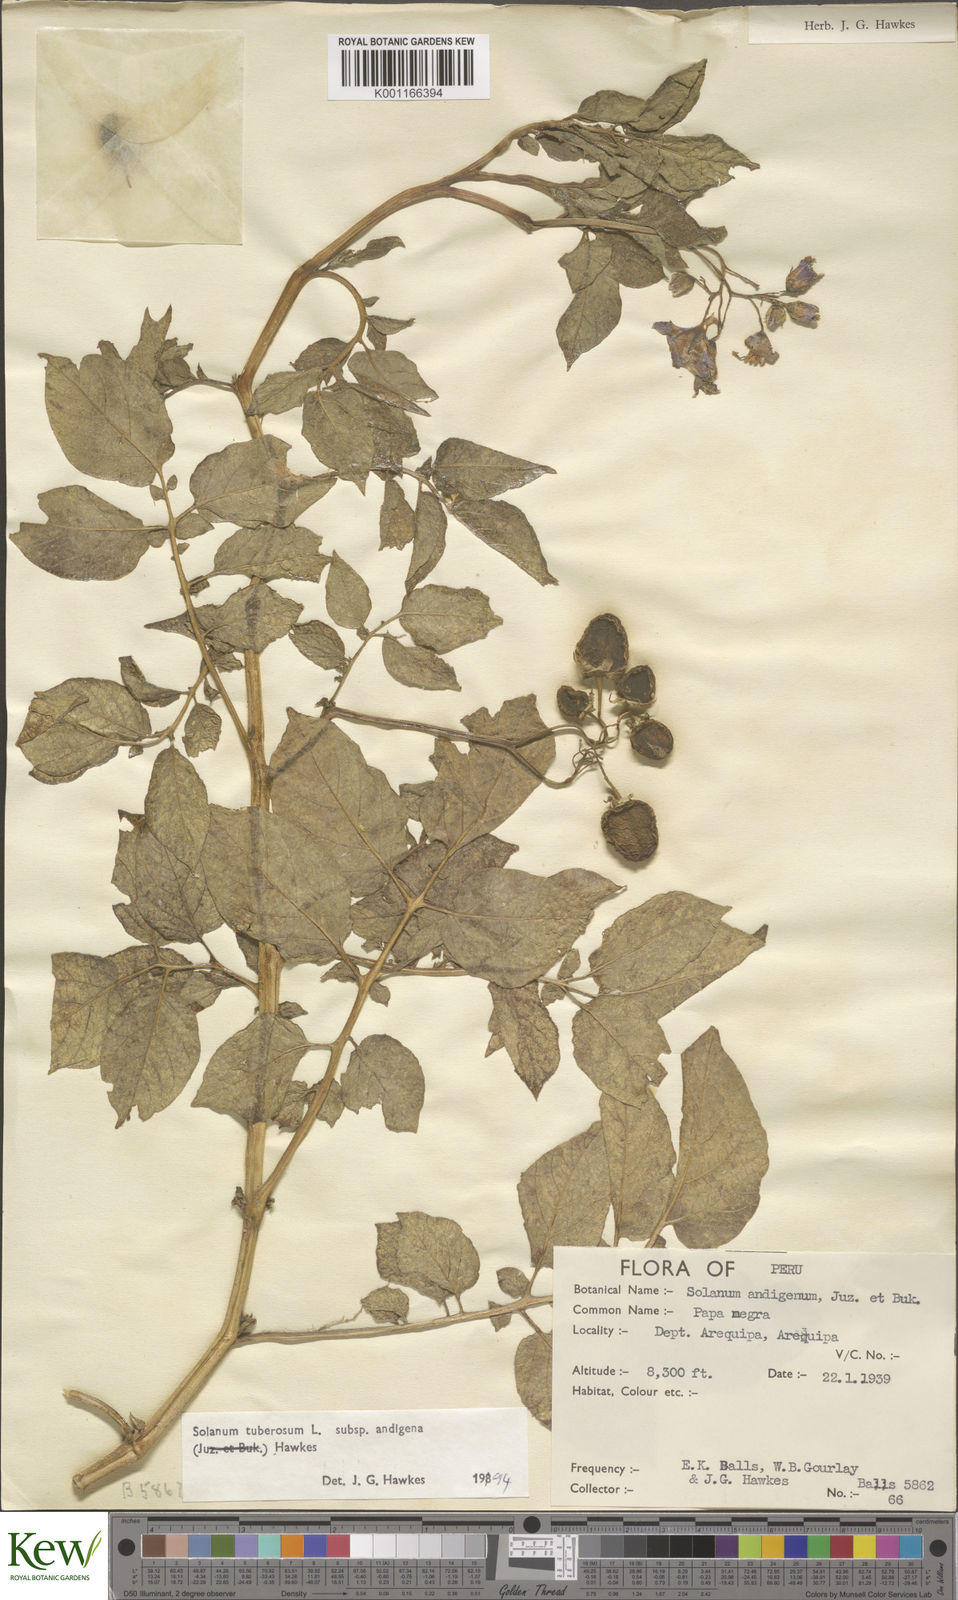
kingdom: Plantae
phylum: Tracheophyta
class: Magnoliopsida
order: Solanales
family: Solanaceae
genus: Solanum
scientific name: Solanum tuberosum
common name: Potato
